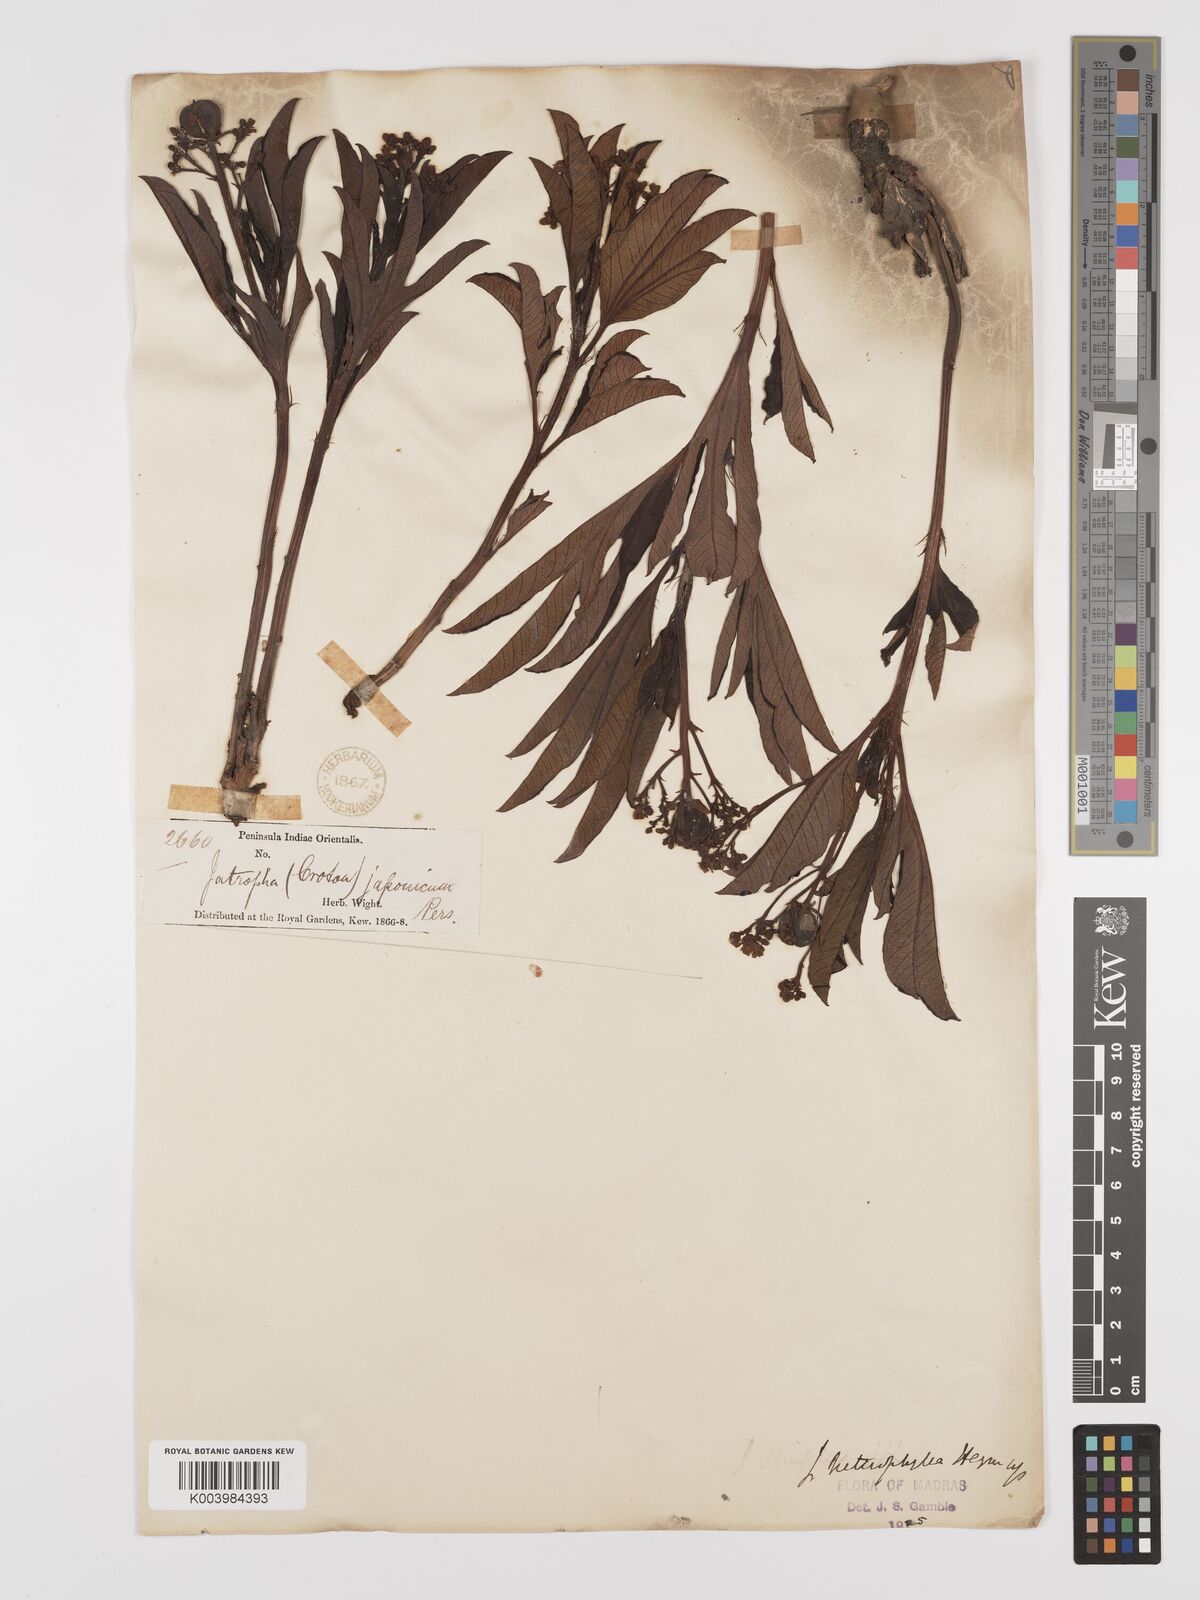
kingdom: Plantae
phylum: Tracheophyta
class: Magnoliopsida
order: Malpighiales
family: Euphorbiaceae
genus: Jatropha
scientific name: Jatropha
